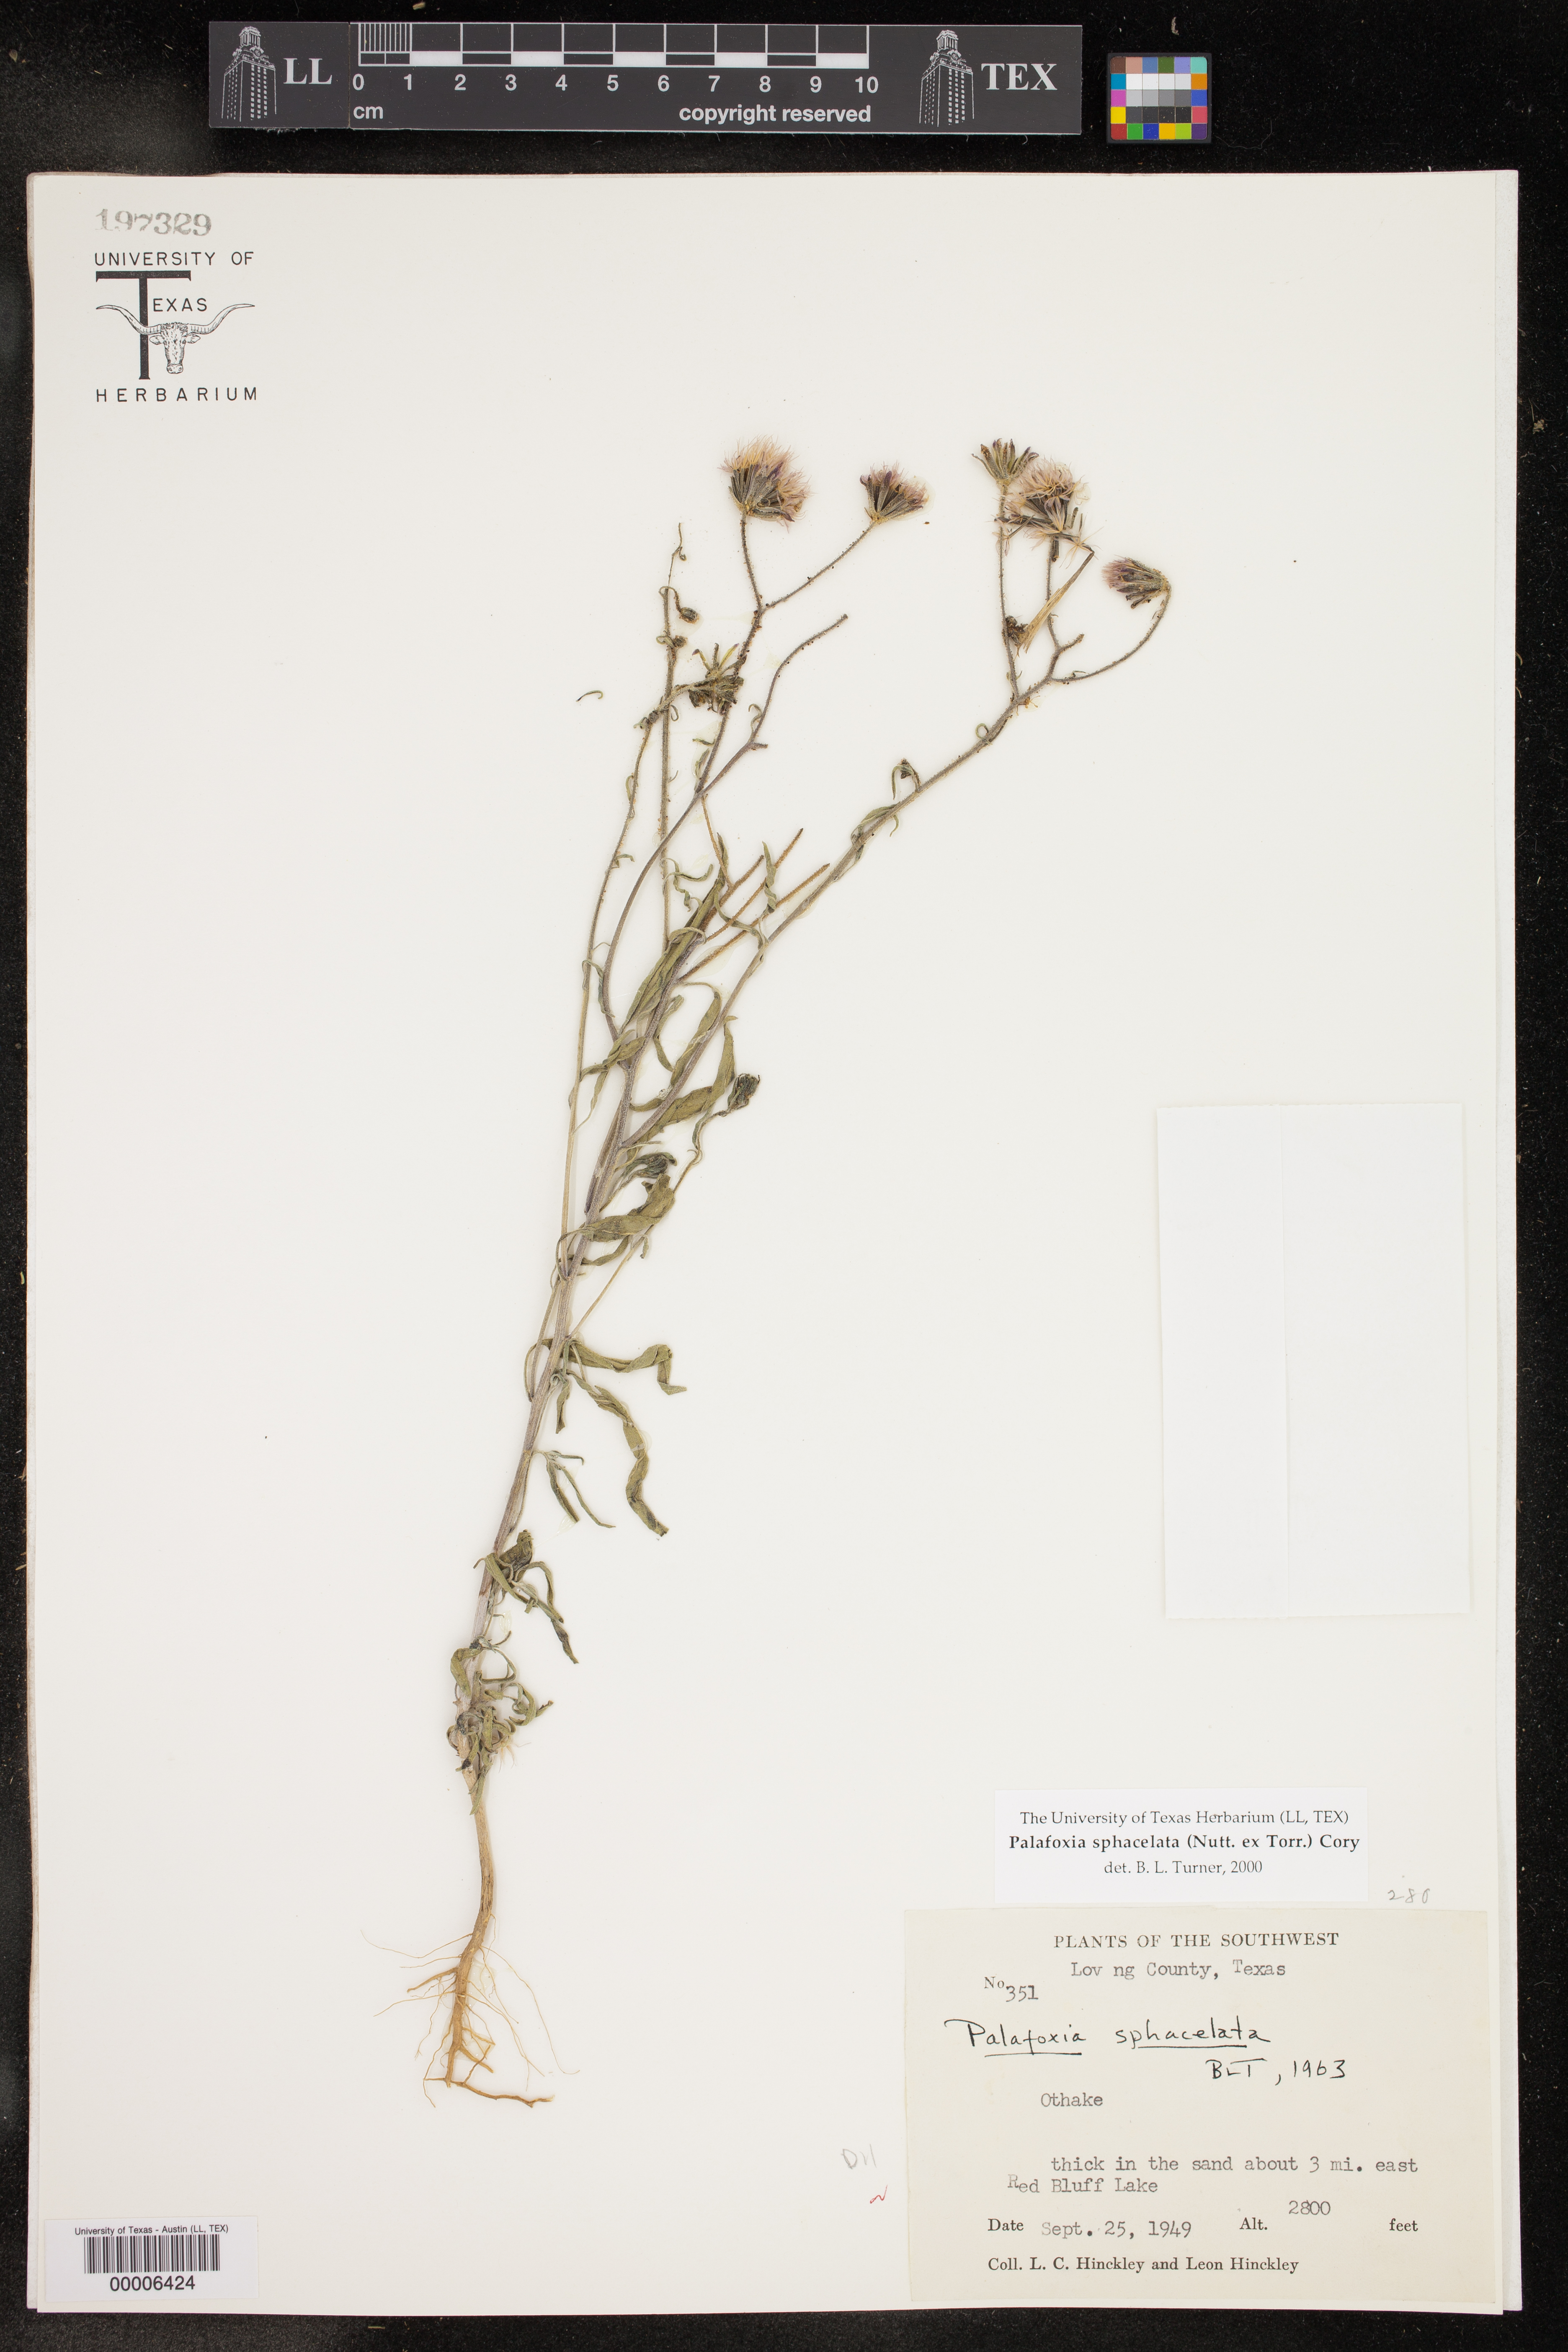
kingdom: Plantae
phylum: Tracheophyta
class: Magnoliopsida
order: Asterales
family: Asteraceae
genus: Palafoxia
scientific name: Palafoxia sphacelata
